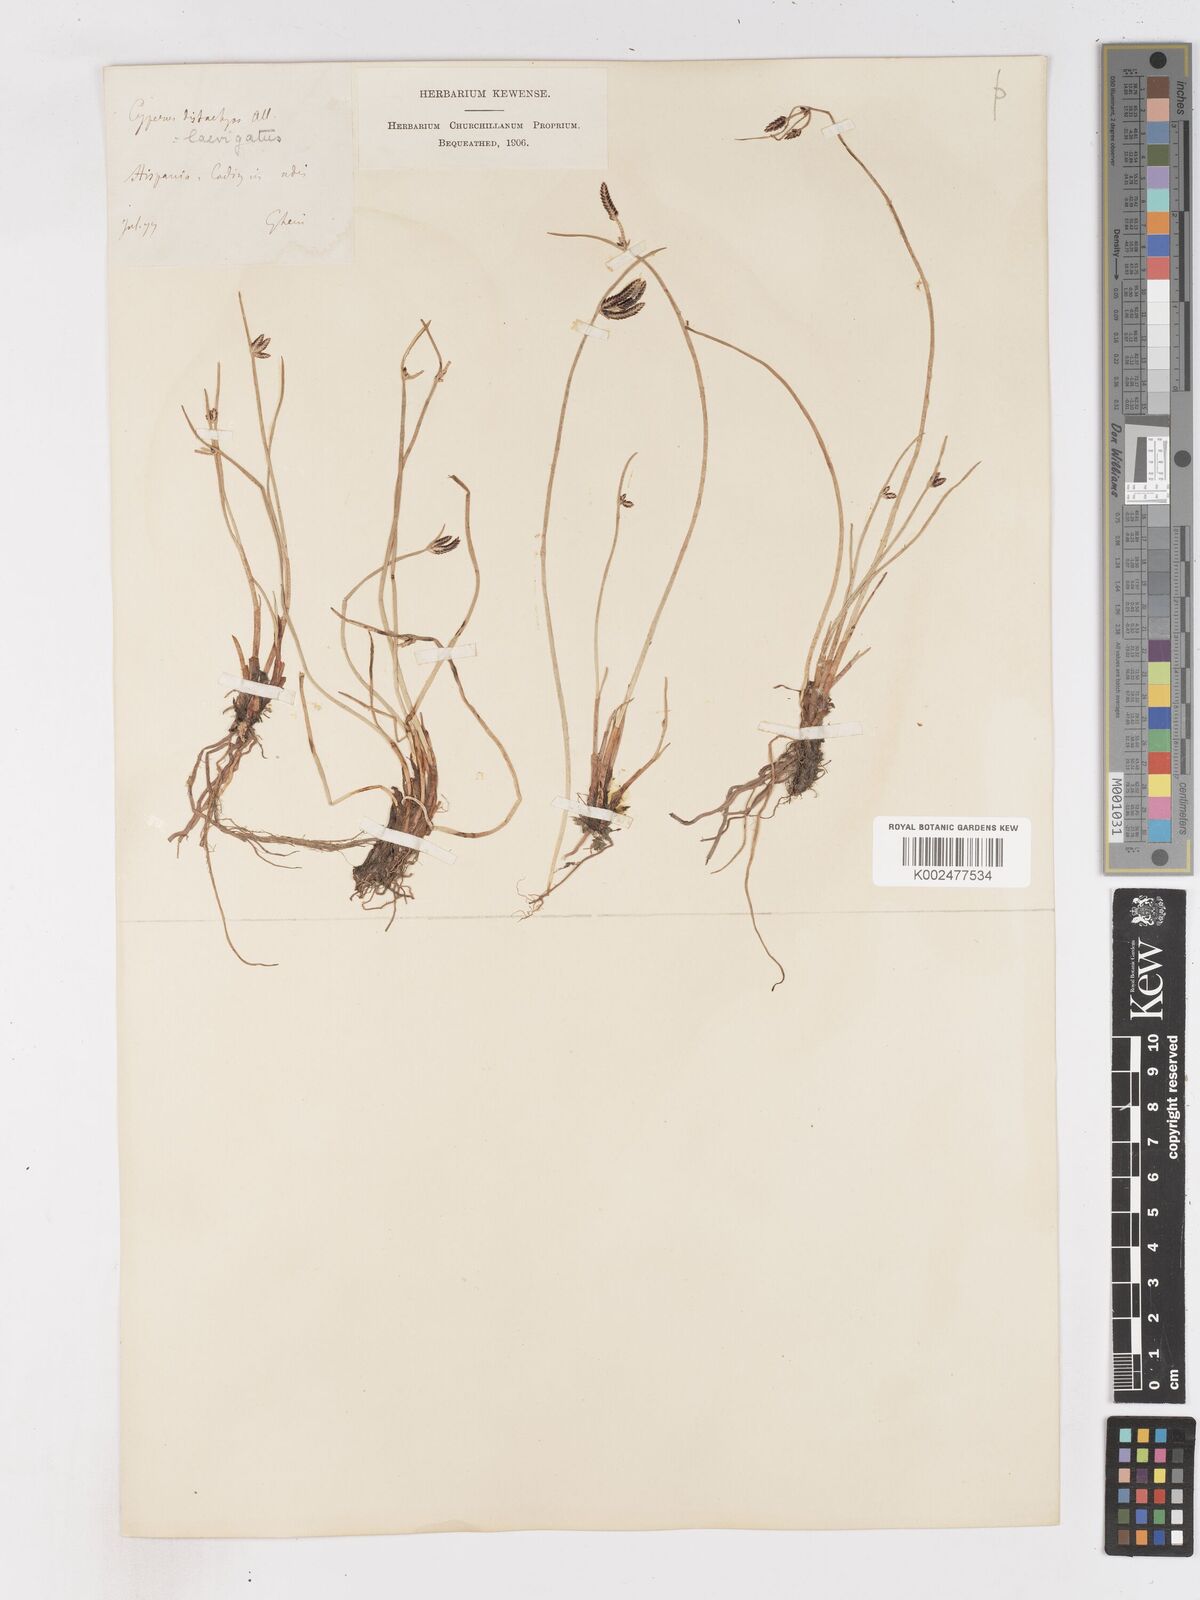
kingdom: Plantae
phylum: Tracheophyta
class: Liliopsida
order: Poales
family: Cyperaceae
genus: Cyperus
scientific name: Cyperus laevigatus
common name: Smooth flat sedge
